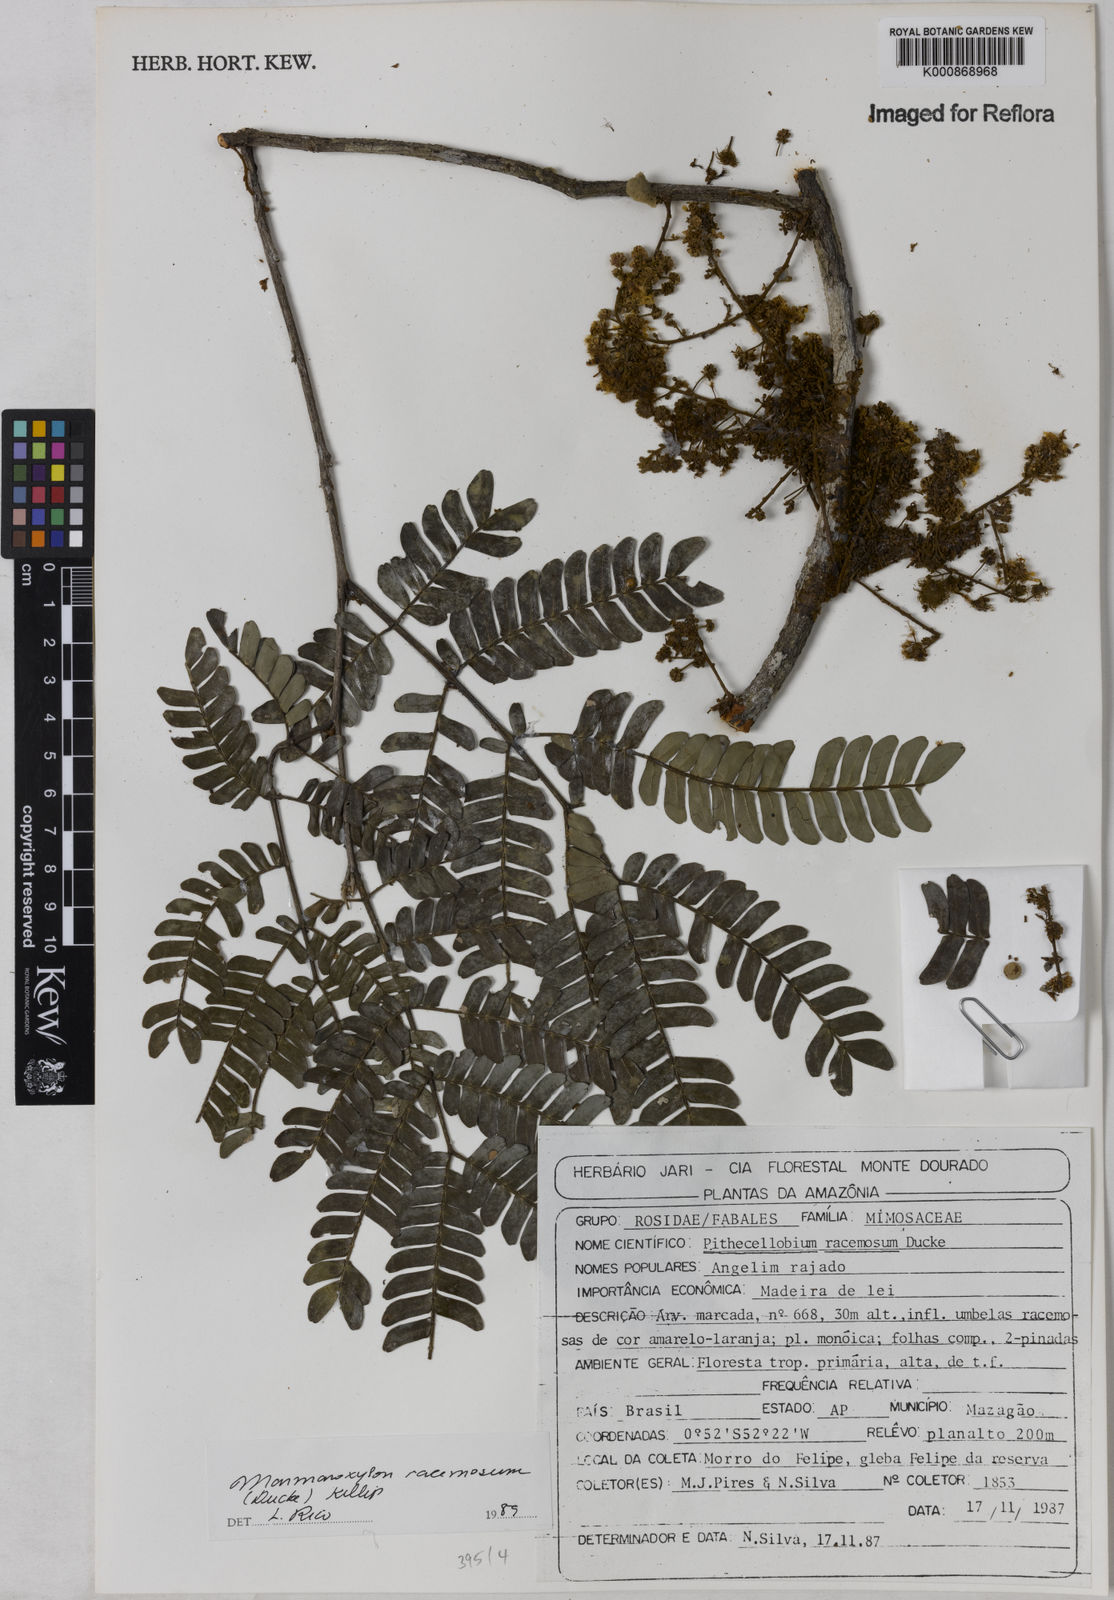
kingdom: Plantae
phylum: Tracheophyta
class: Magnoliopsida
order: Fabales
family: Fabaceae
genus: Zygia
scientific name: Zygia racemosa
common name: Marblewood
